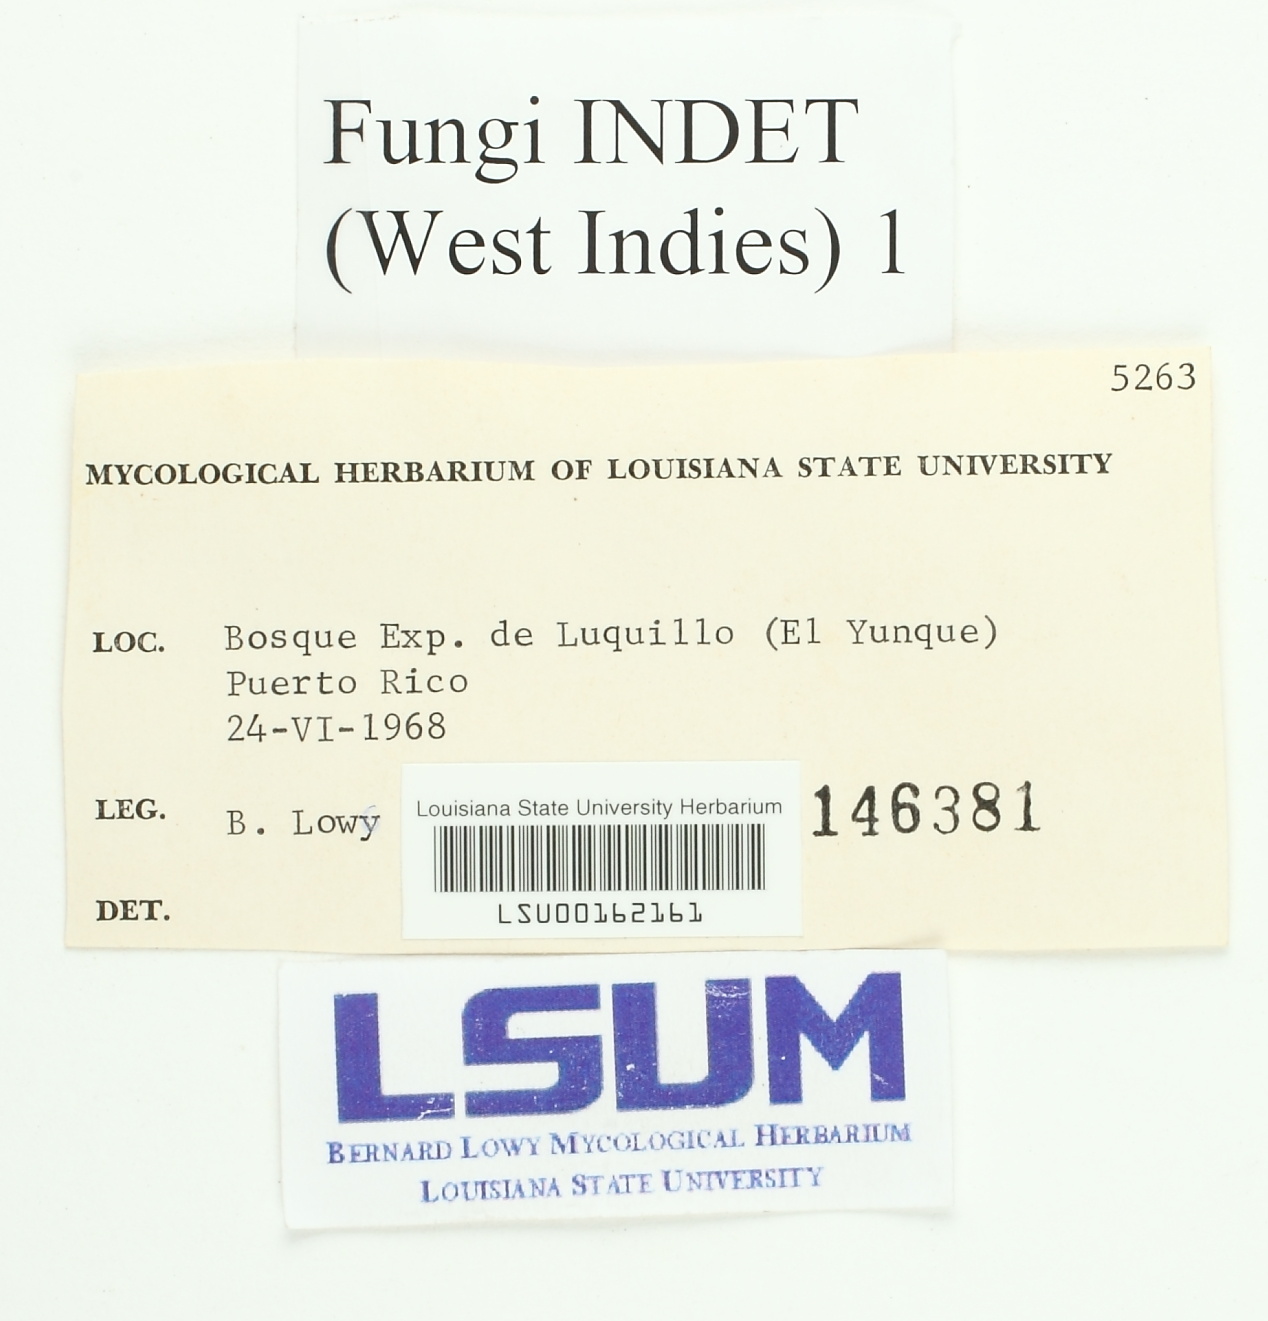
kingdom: Fungi
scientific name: Fungi
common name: Fungi
